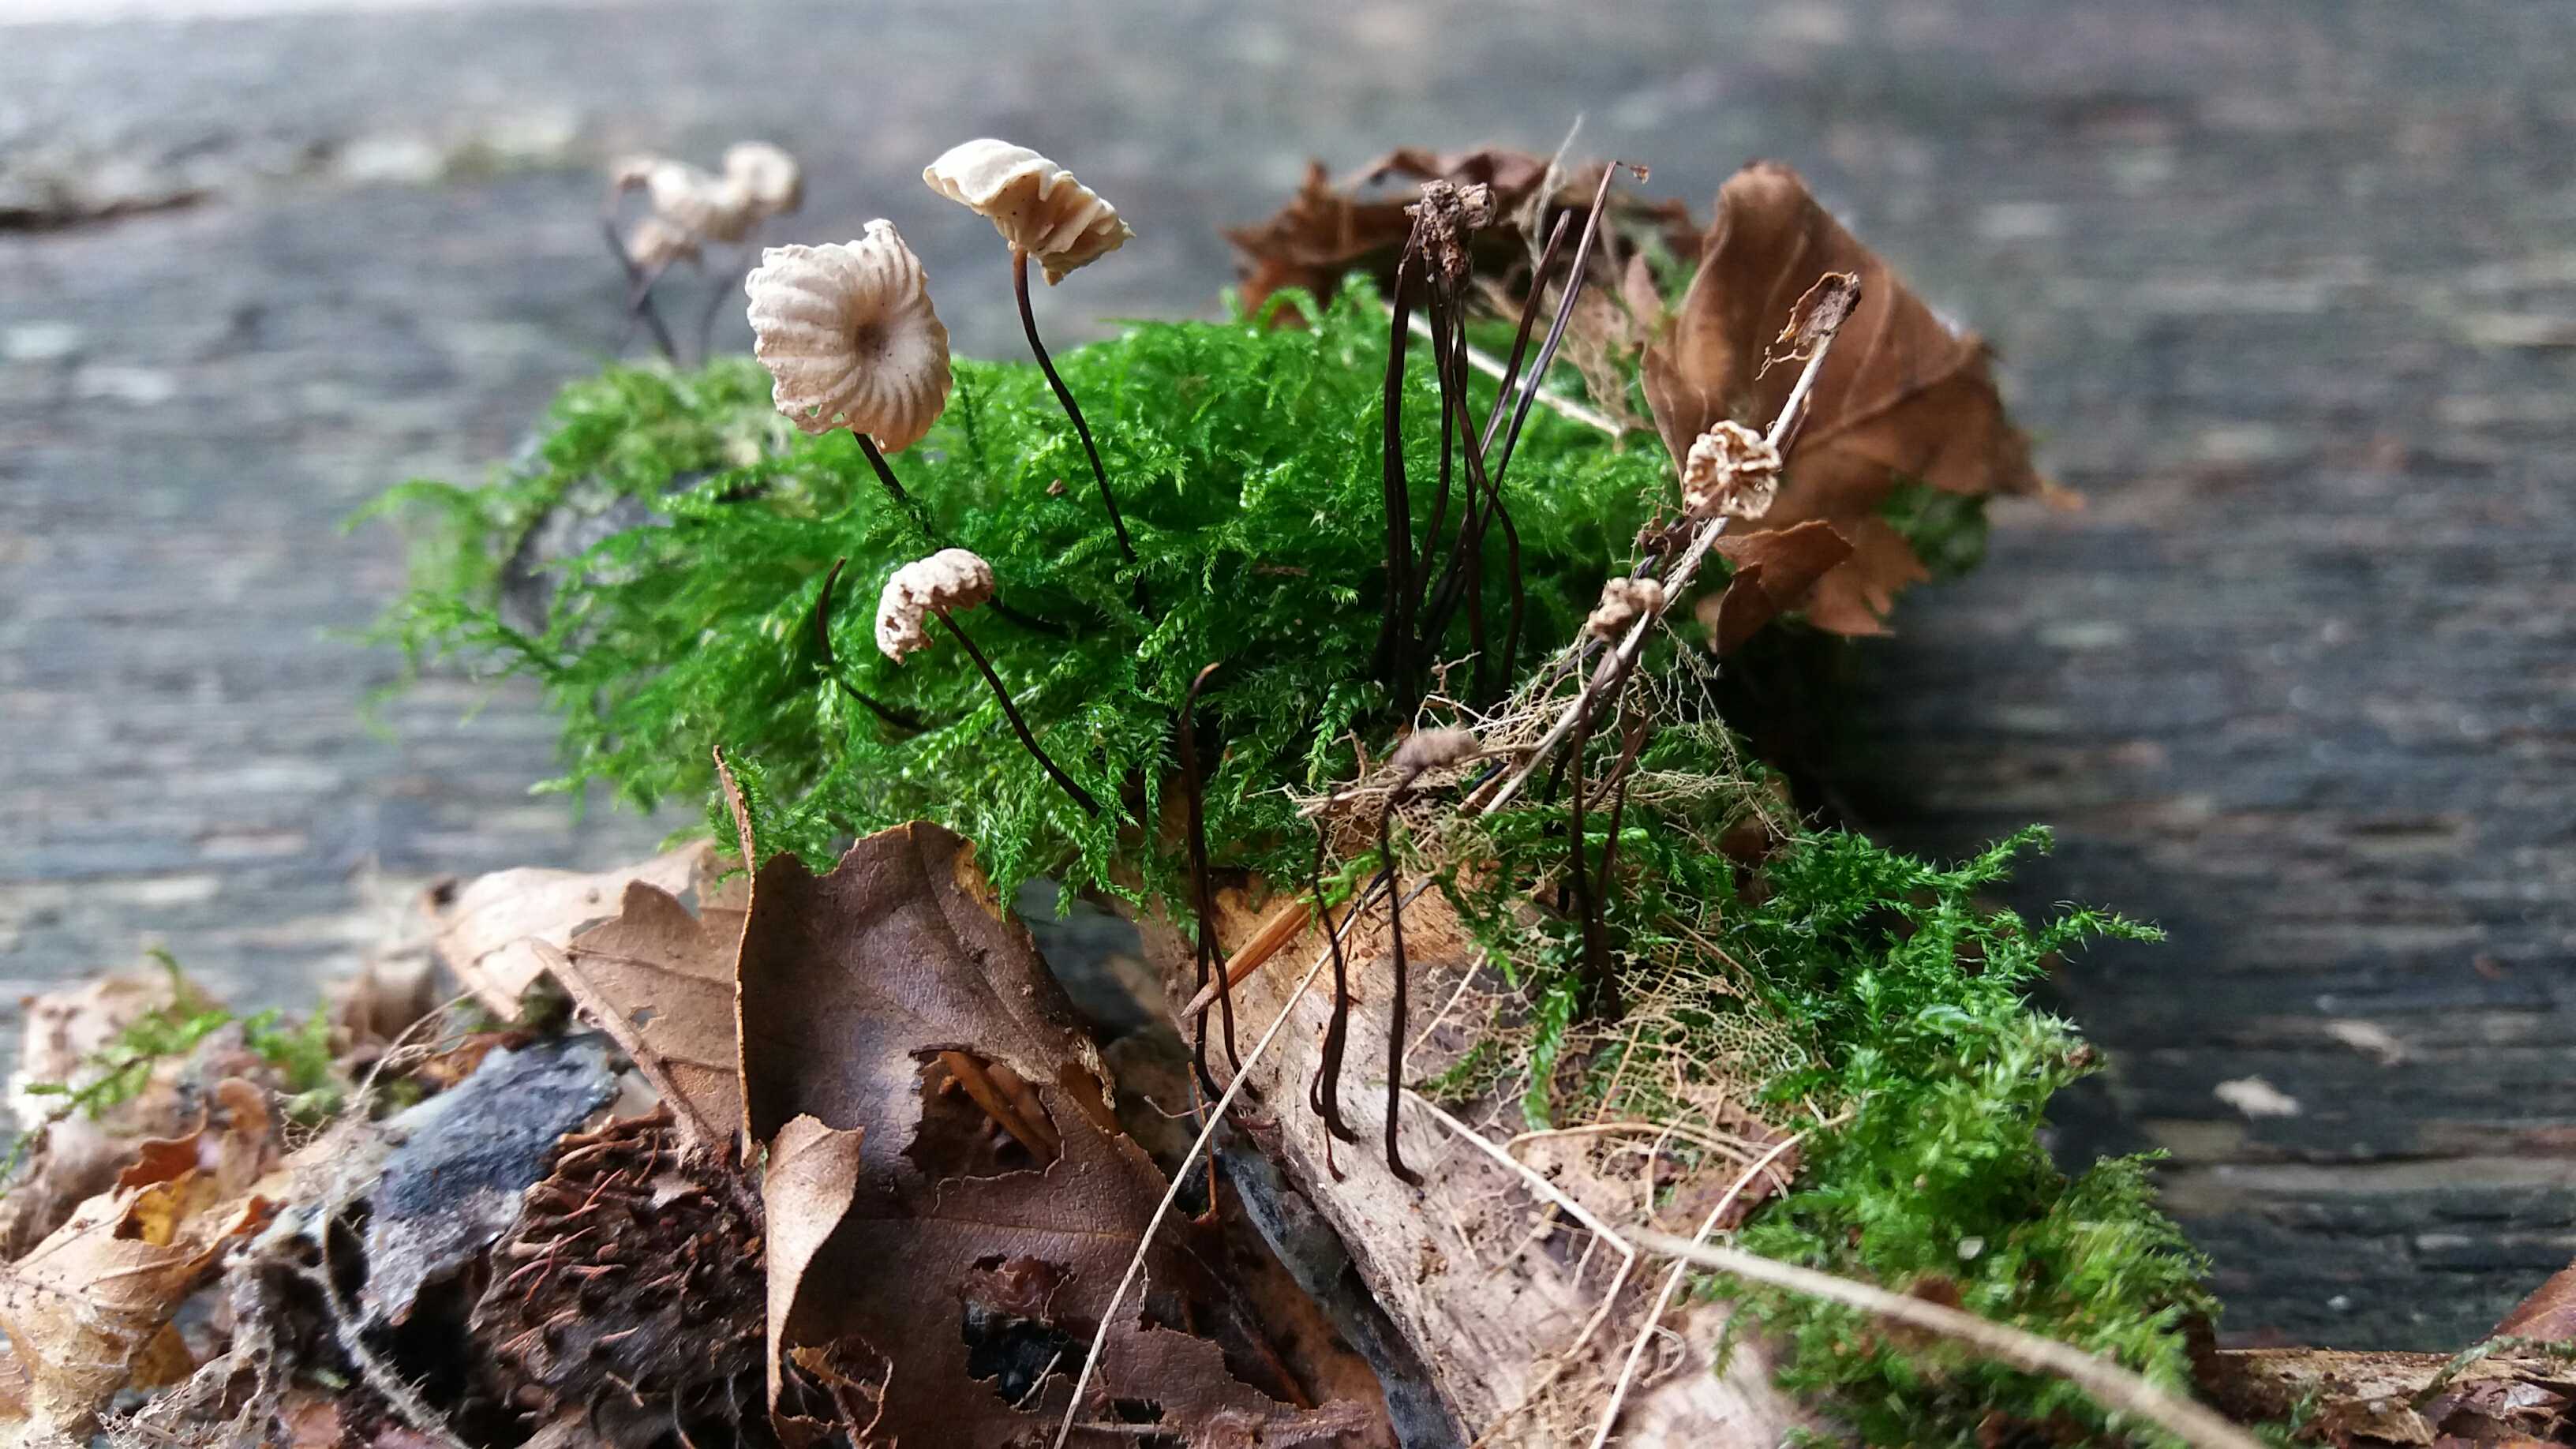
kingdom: Fungi
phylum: Basidiomycota
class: Agaricomycetes
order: Agaricales
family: Marasmiaceae
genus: Marasmius
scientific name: Marasmius rotula
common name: hjul-bruskhat
